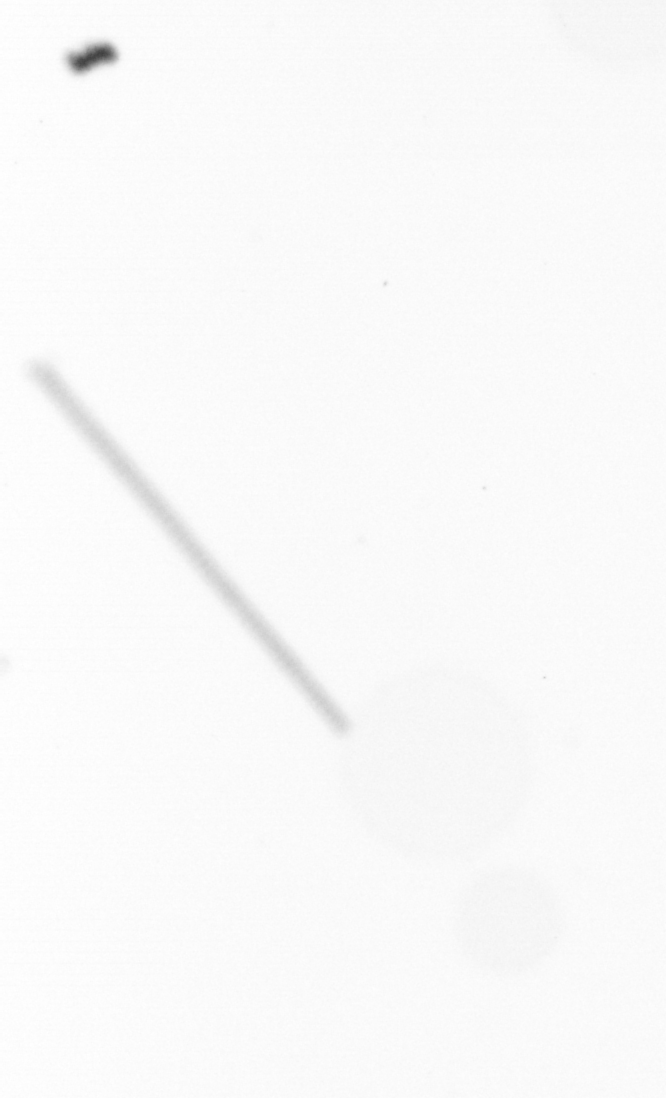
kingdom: Chromista
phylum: Ochrophyta
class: Bacillariophyceae
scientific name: Bacillariophyceae
